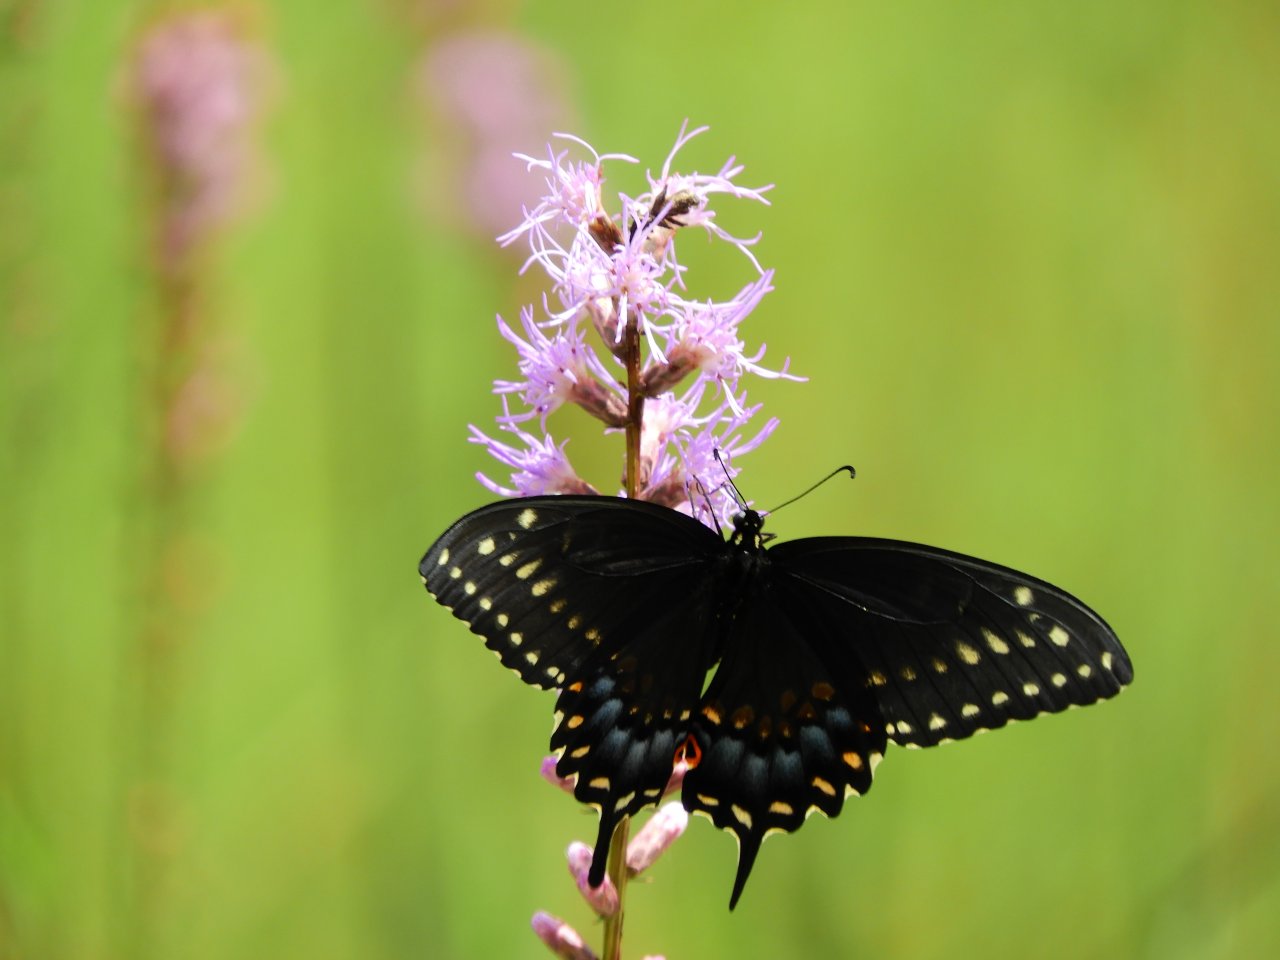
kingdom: Animalia
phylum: Arthropoda
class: Insecta
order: Lepidoptera
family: Papilionidae
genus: Papilio
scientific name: Papilio polyxenes
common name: Black Swallowtail
